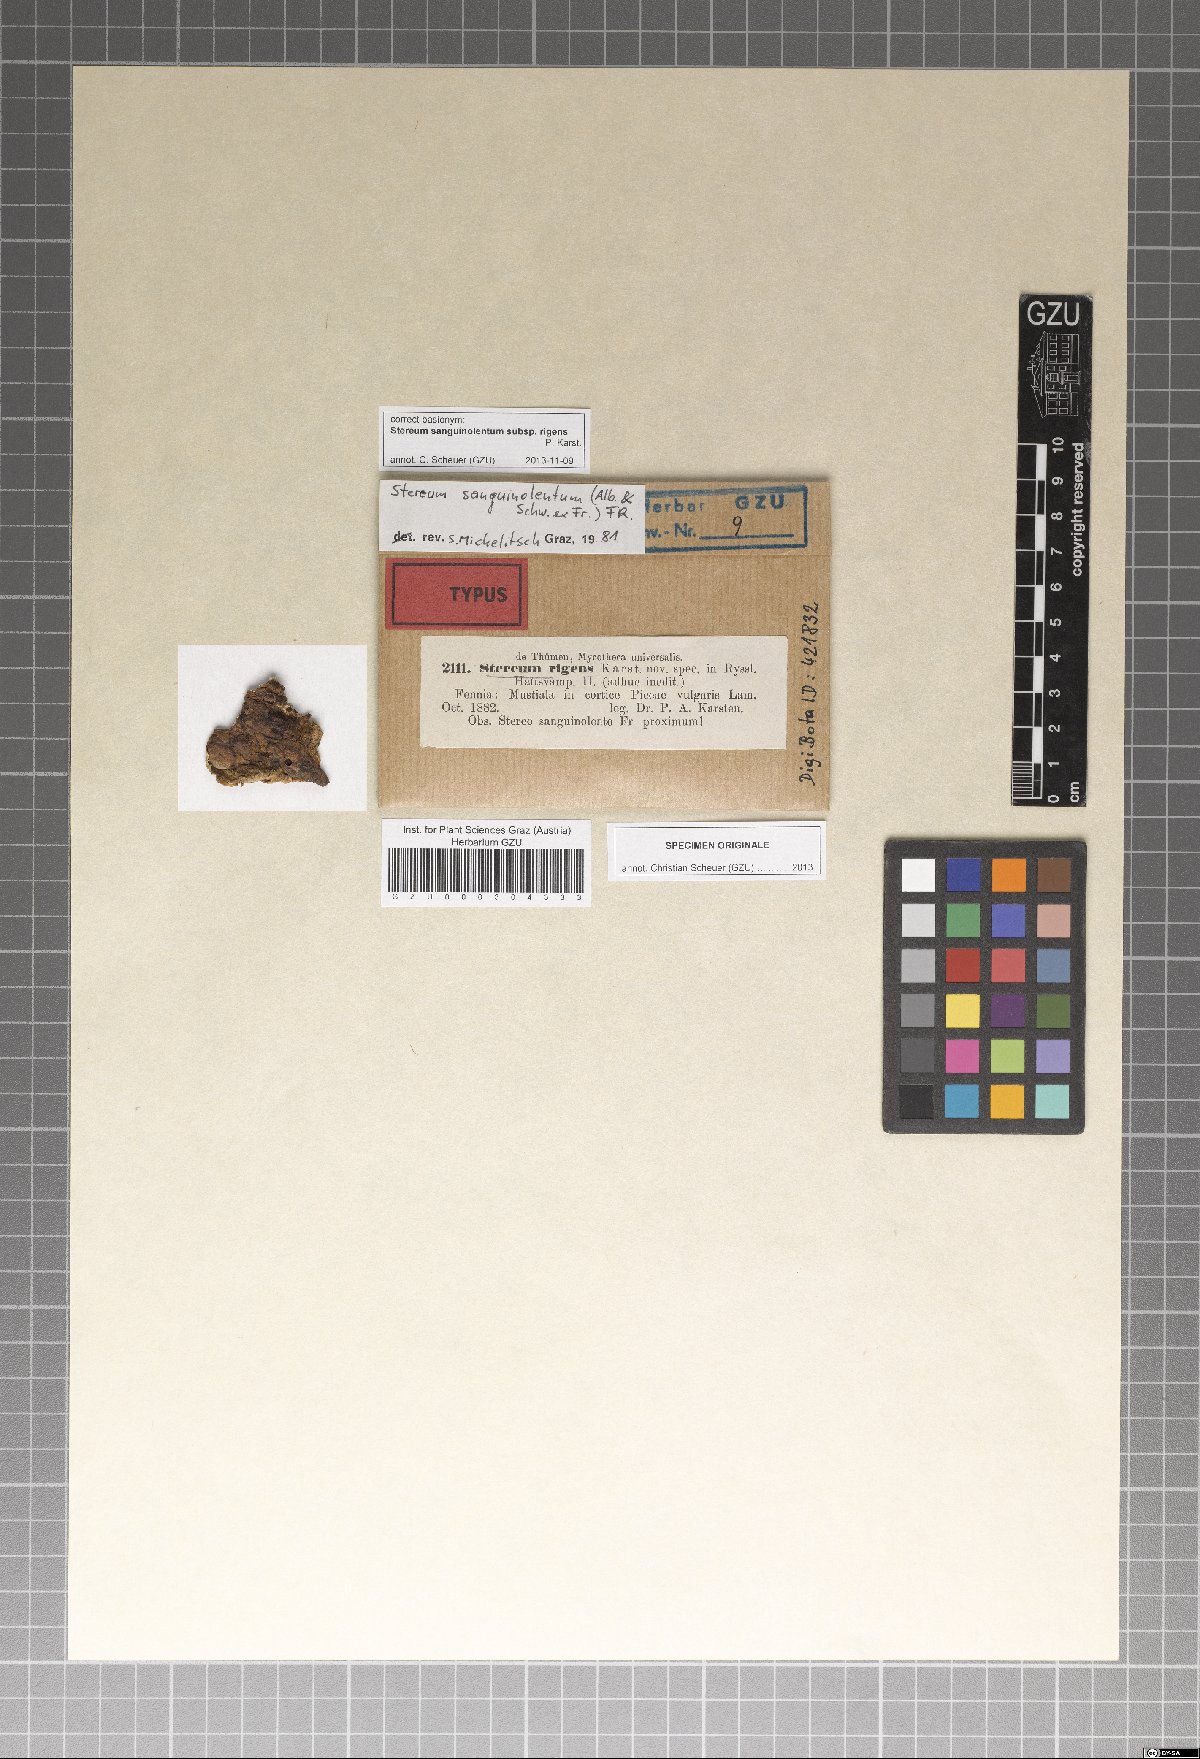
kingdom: Fungi
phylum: Basidiomycota
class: Agaricomycetes
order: Russulales
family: Stereaceae
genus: Stereum
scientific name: Stereum sanguinolentum
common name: Bleeding conifer crust
